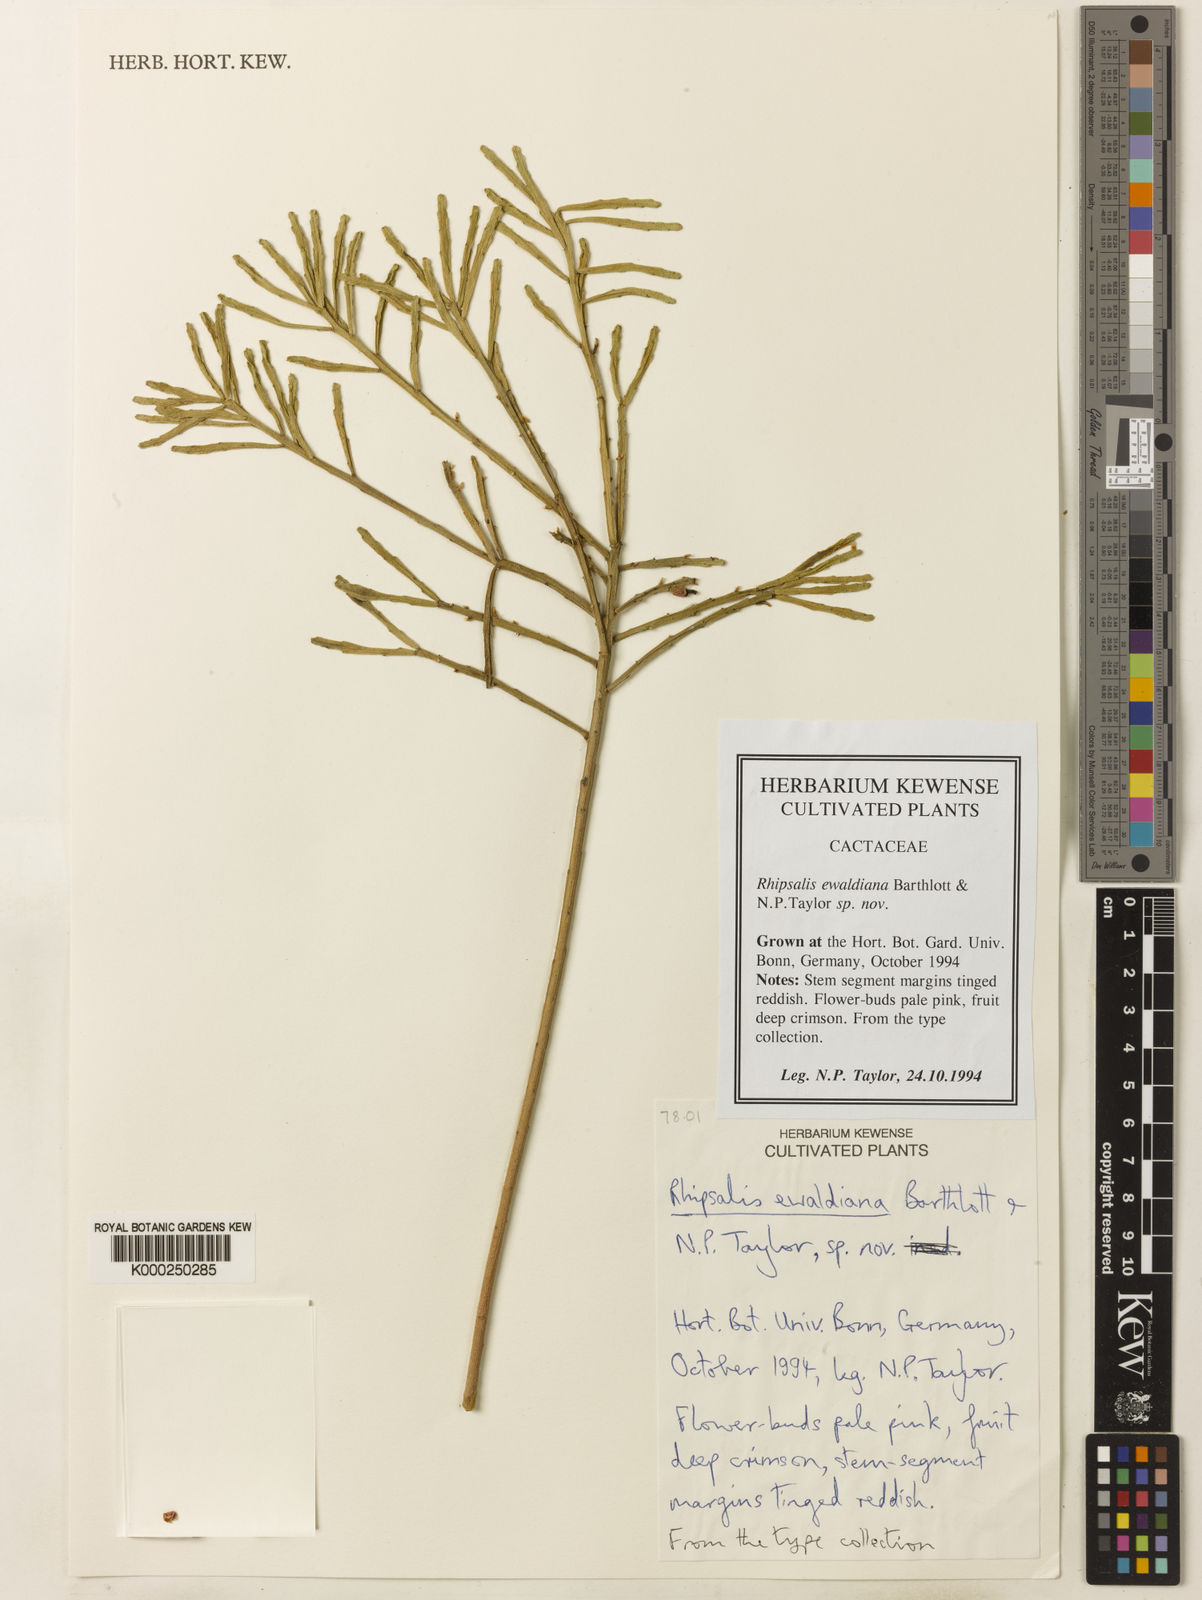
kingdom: Plantae
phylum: Tracheophyta
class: Magnoliopsida
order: Caryophyllales
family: Cactaceae
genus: Rhipsalis
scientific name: Rhipsalis ewaldiana
